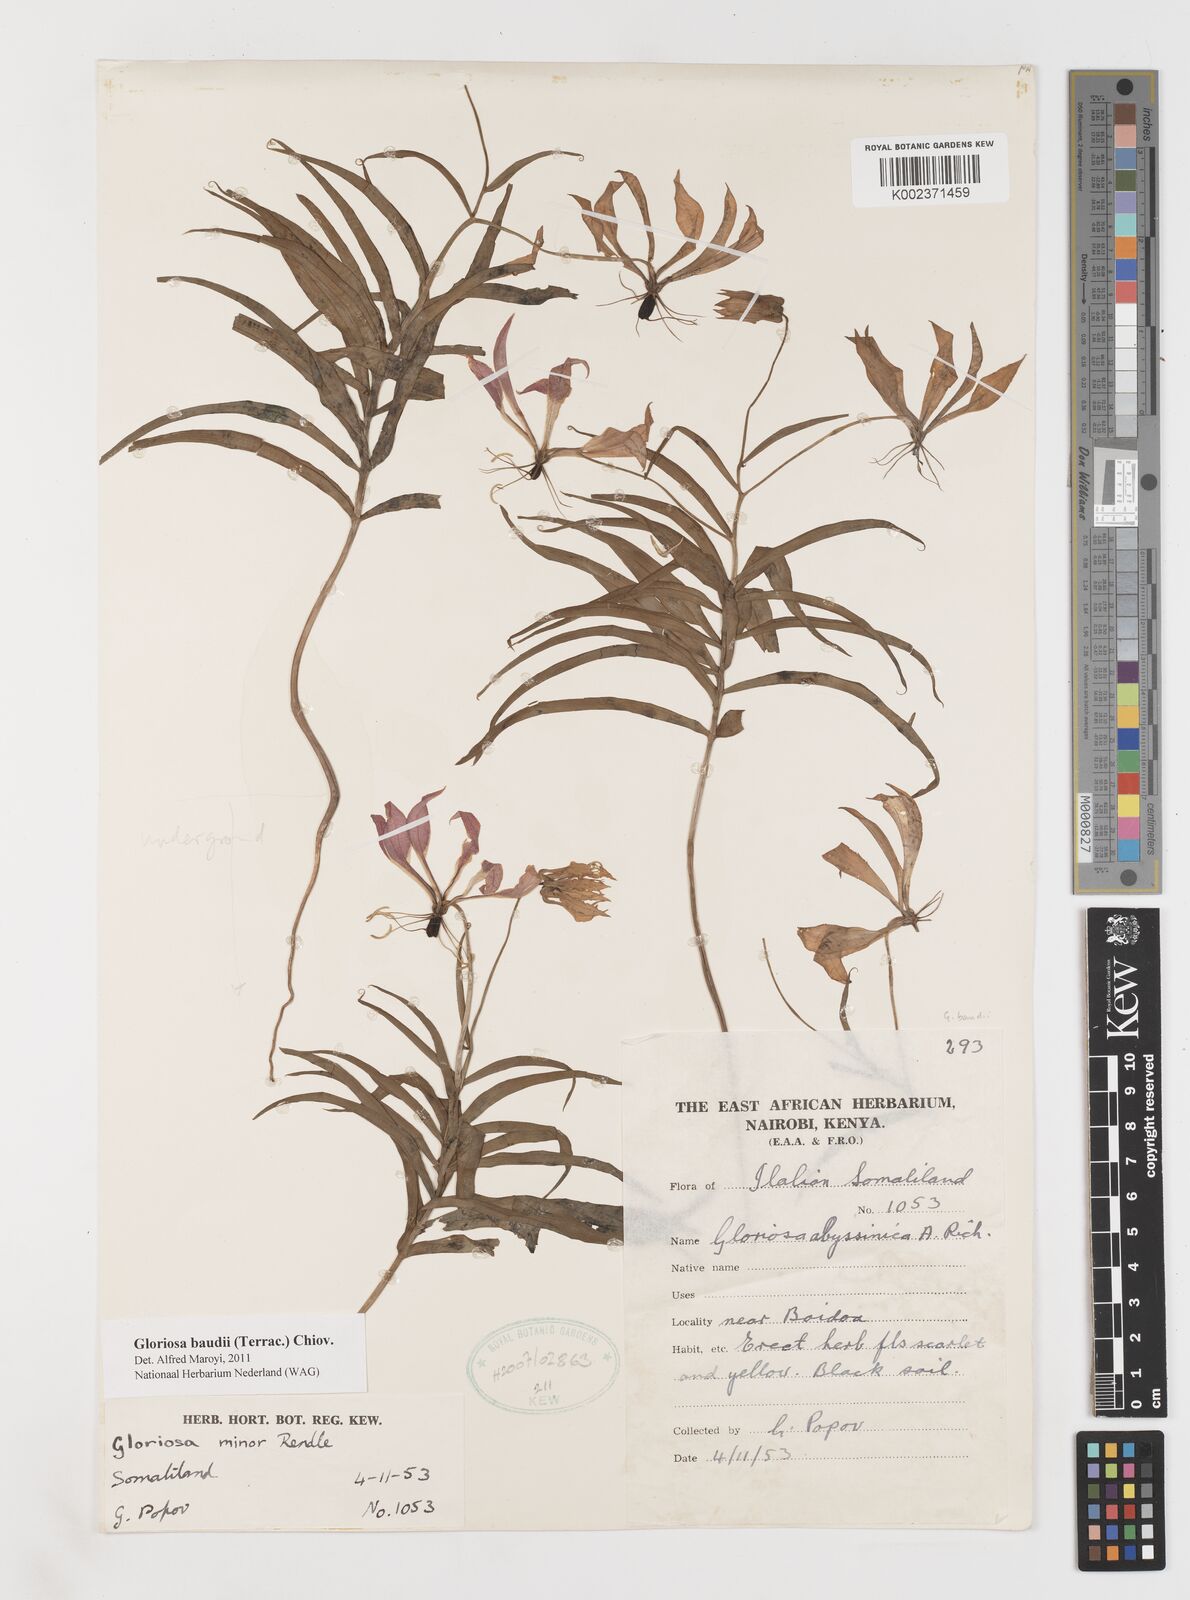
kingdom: Plantae
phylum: Tracheophyta
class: Liliopsida
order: Liliales
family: Colchicaceae
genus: Gloriosa
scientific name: Gloriosa baudii
